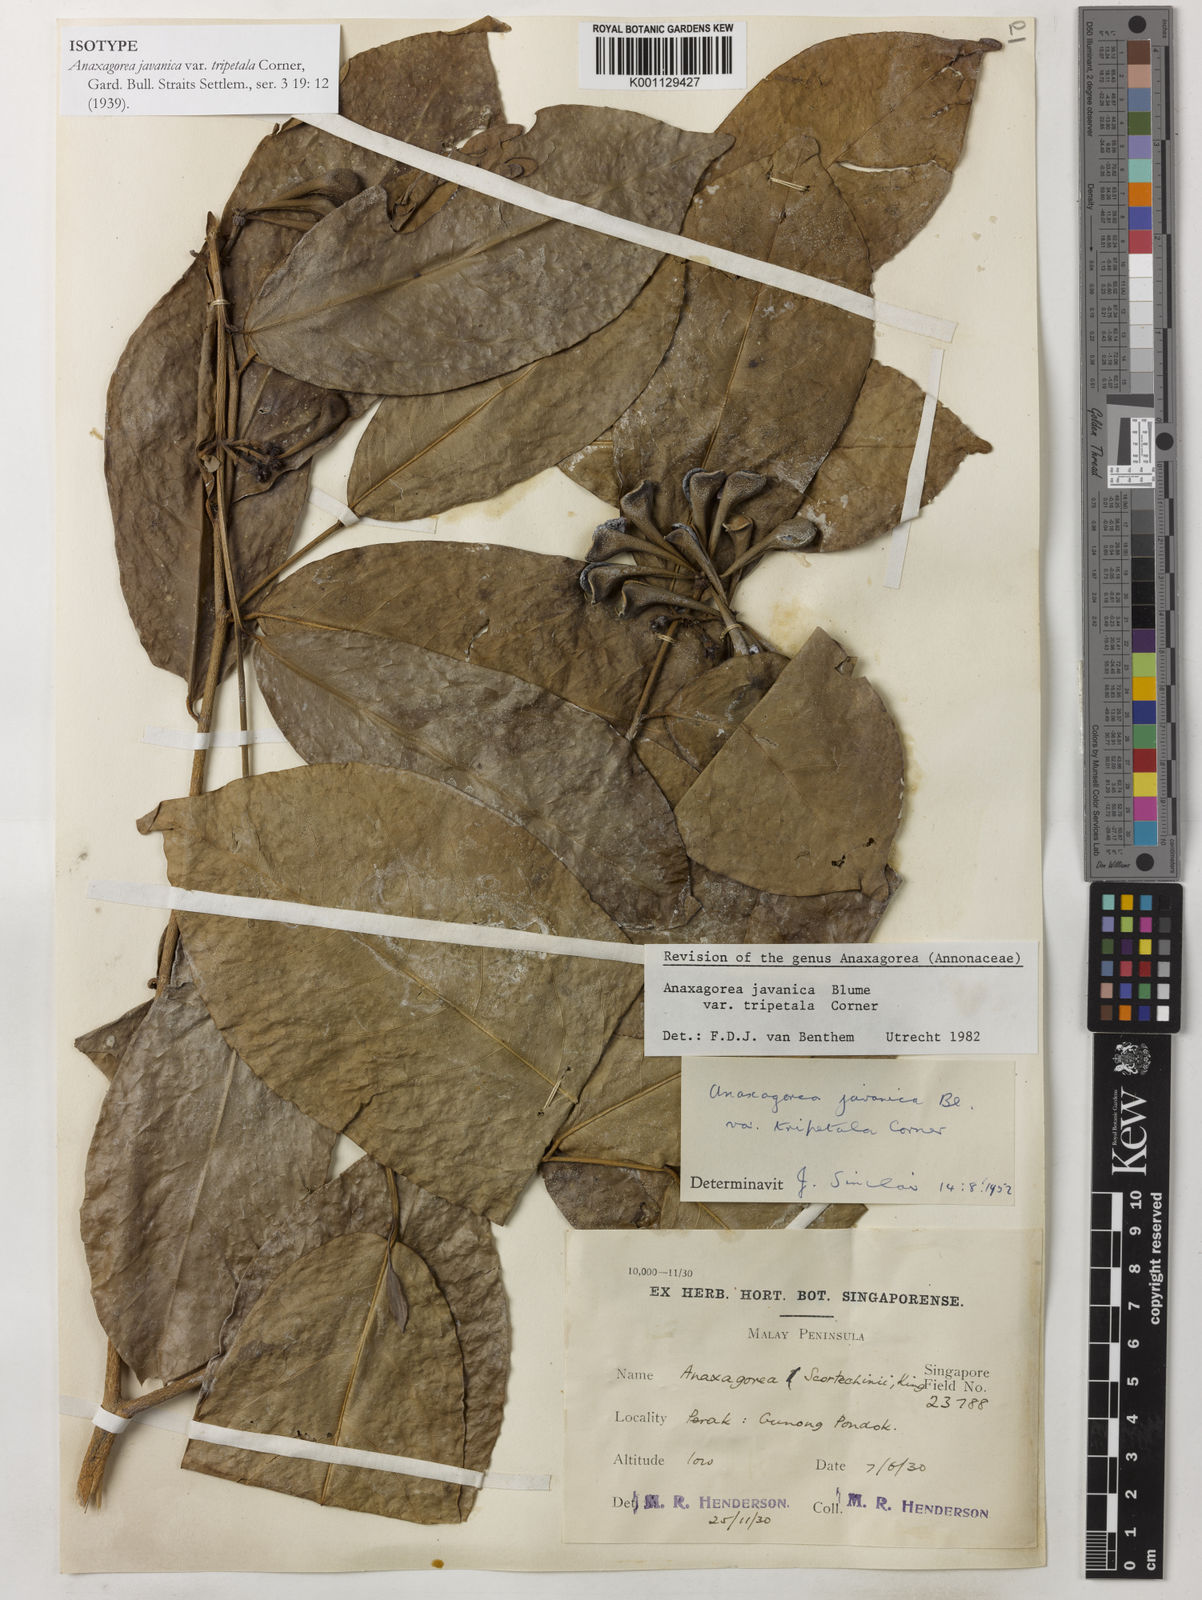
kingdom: Plantae
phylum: Tracheophyta
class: Magnoliopsida
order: Magnoliales
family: Annonaceae
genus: Anaxagorea
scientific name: Anaxagorea javanica
